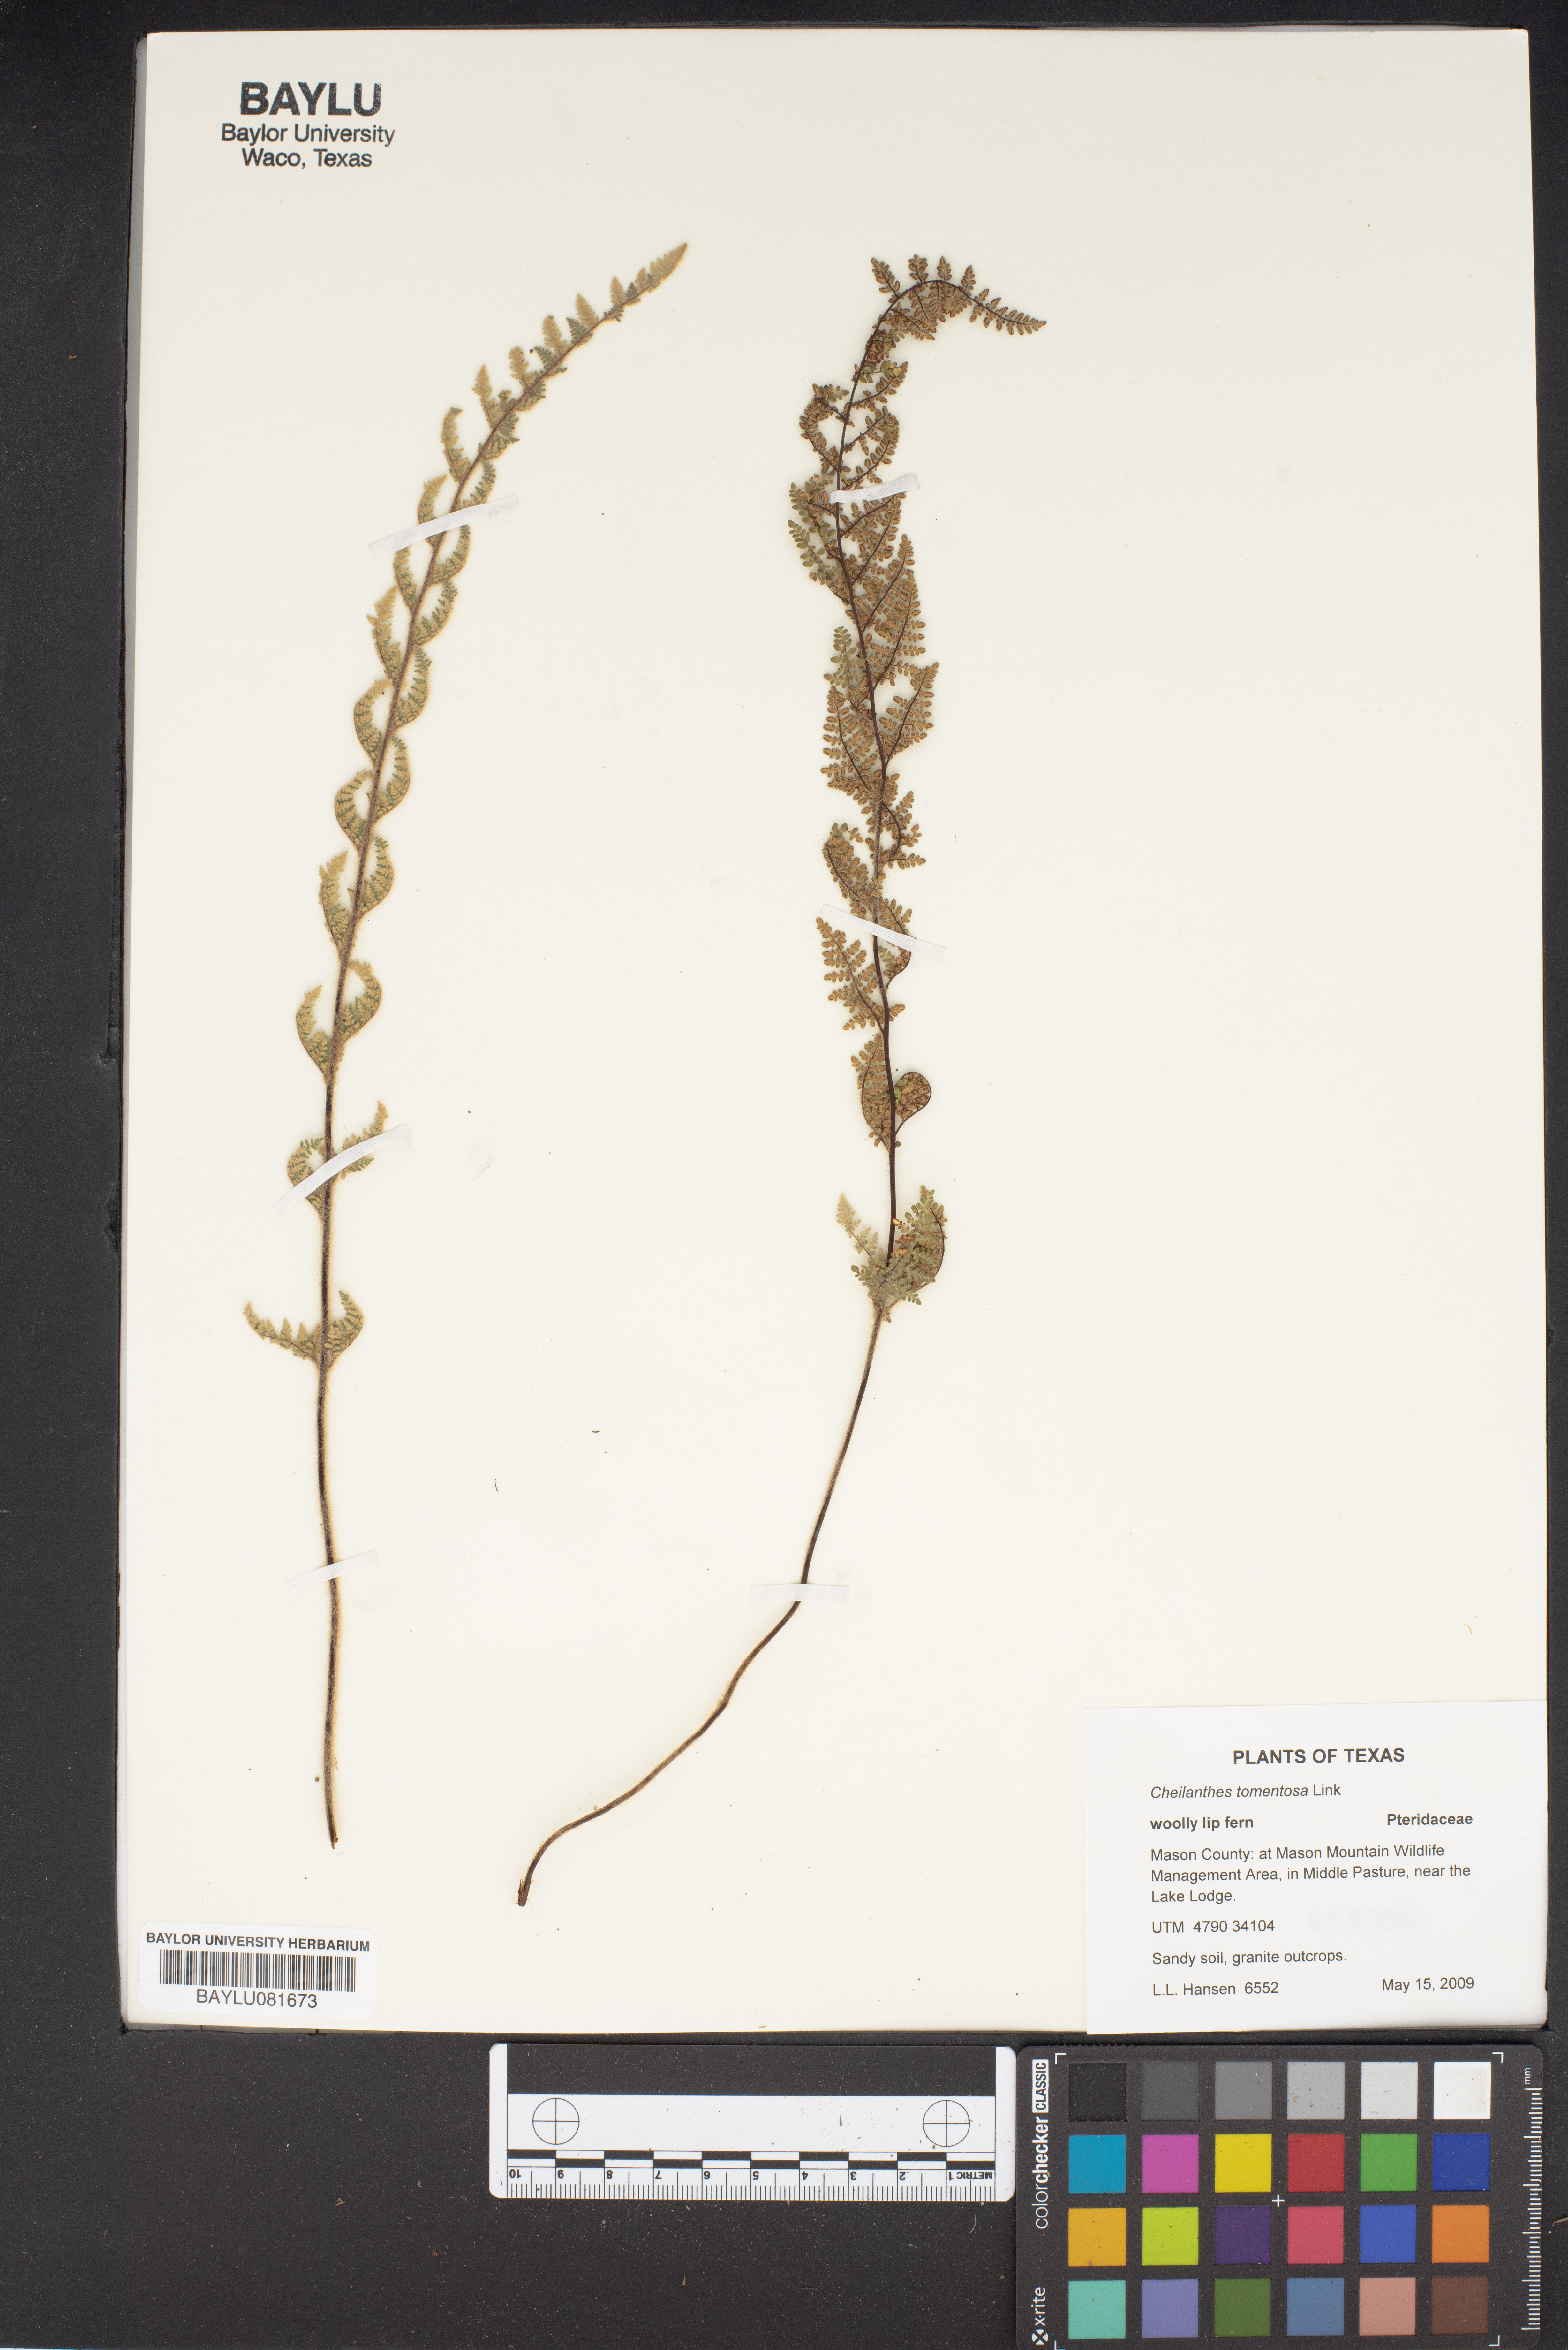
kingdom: Plantae
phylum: Tracheophyta
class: Polypodiopsida
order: Polypodiales
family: Pteridaceae
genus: Myriopteris
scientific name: Myriopteris tomentosa
